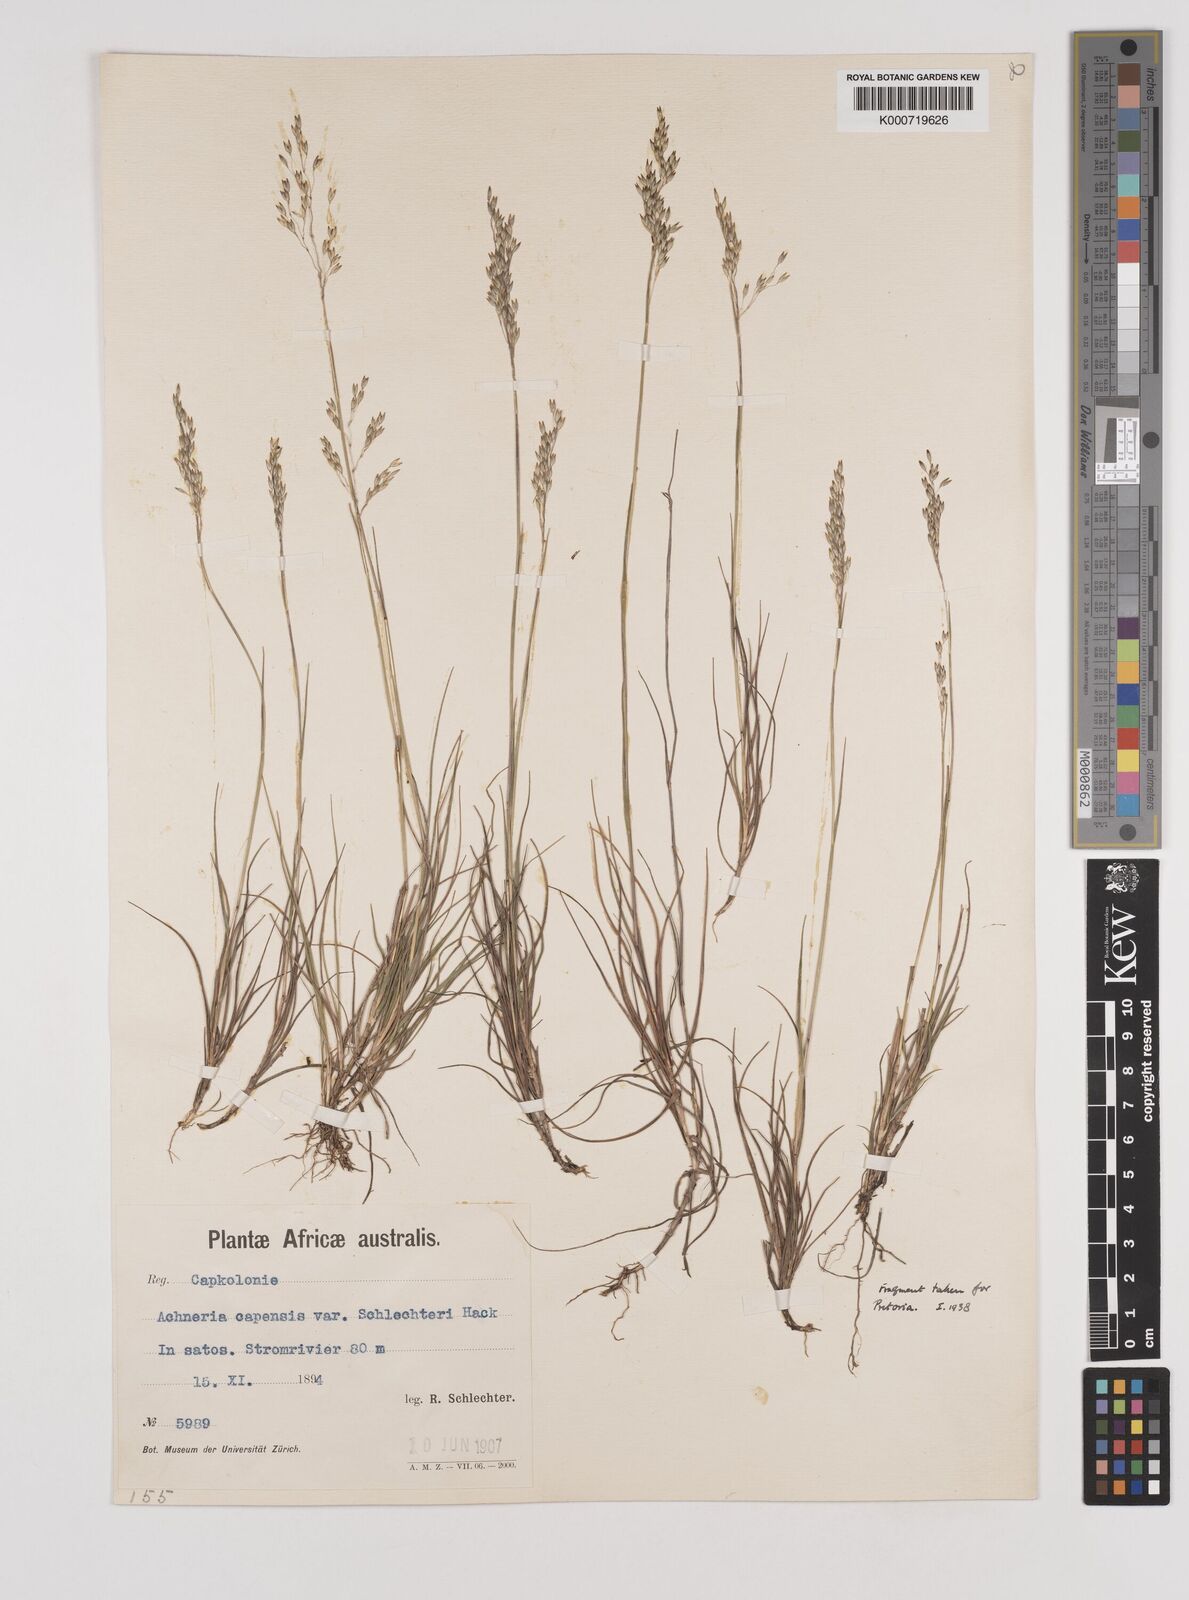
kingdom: Plantae
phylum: Tracheophyta
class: Liliopsida
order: Poales
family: Poaceae
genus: Pentameris
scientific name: Pentameris malouinensis
